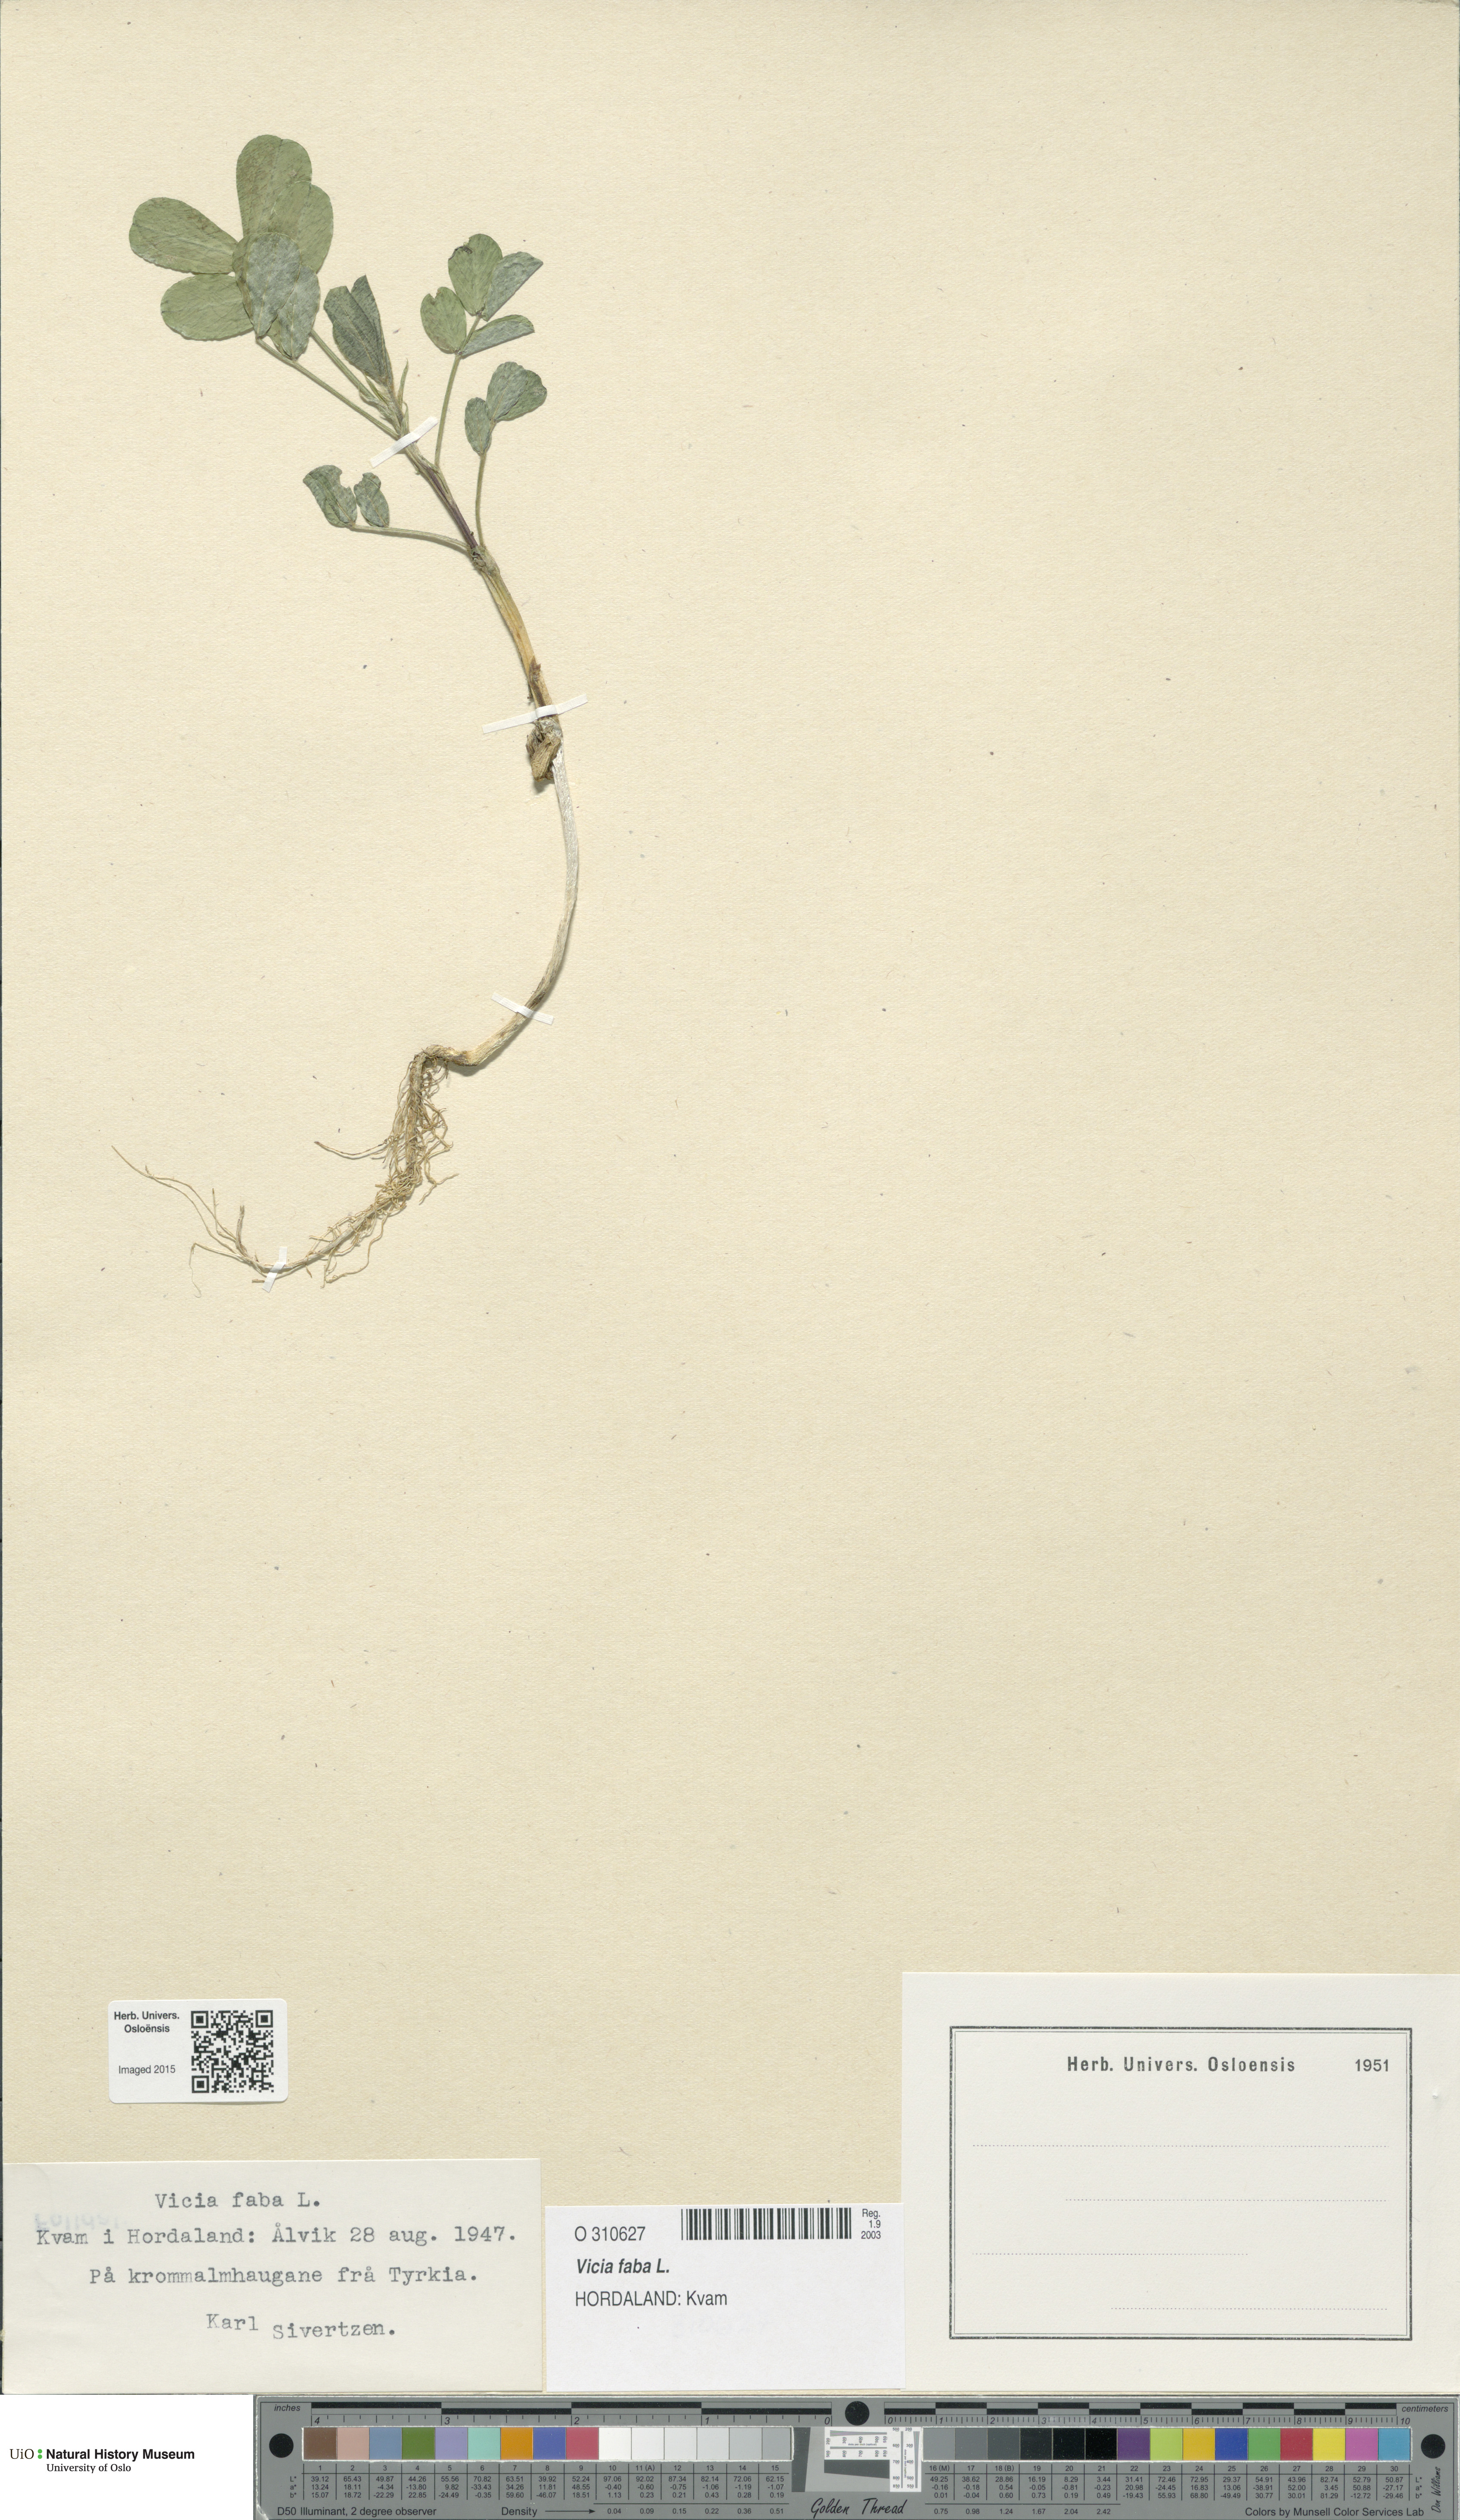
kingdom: Plantae
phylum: Tracheophyta
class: Magnoliopsida
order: Fabales
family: Fabaceae
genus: Vicia
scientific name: Vicia faba
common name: Broad bean
